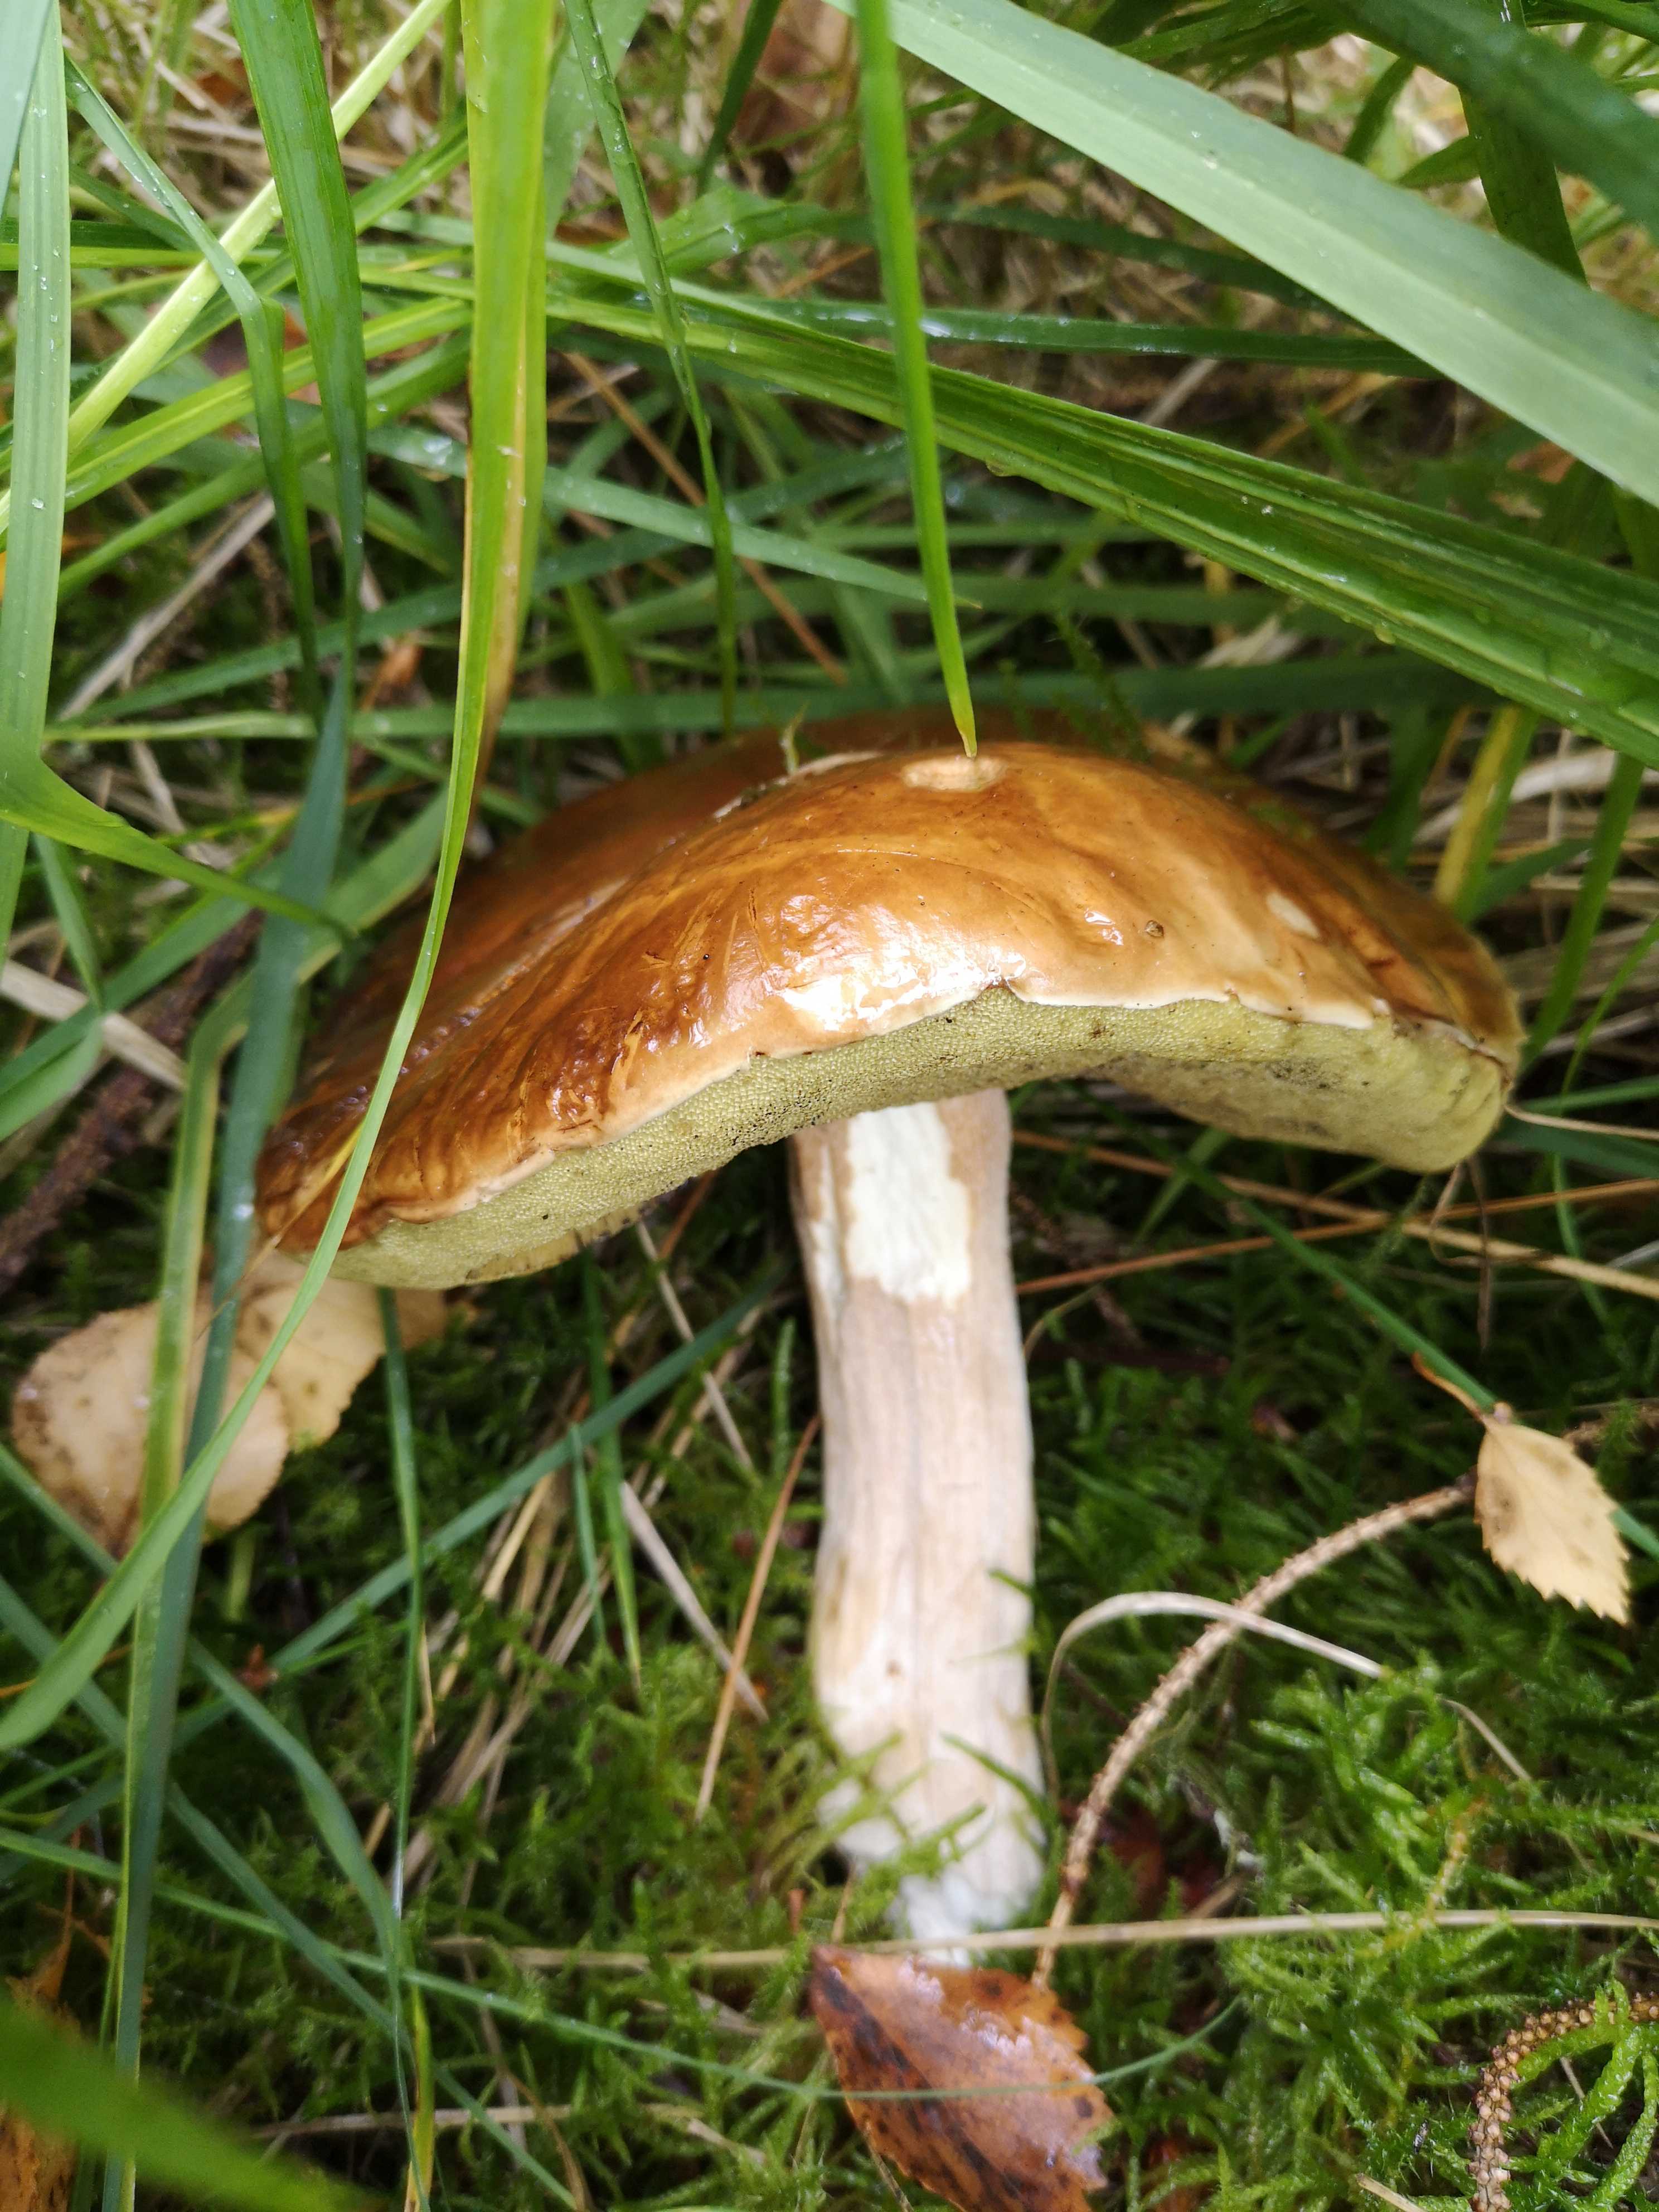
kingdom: Fungi
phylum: Basidiomycota
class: Agaricomycetes
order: Boletales
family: Boletaceae
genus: Boletus
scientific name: Boletus edulis
